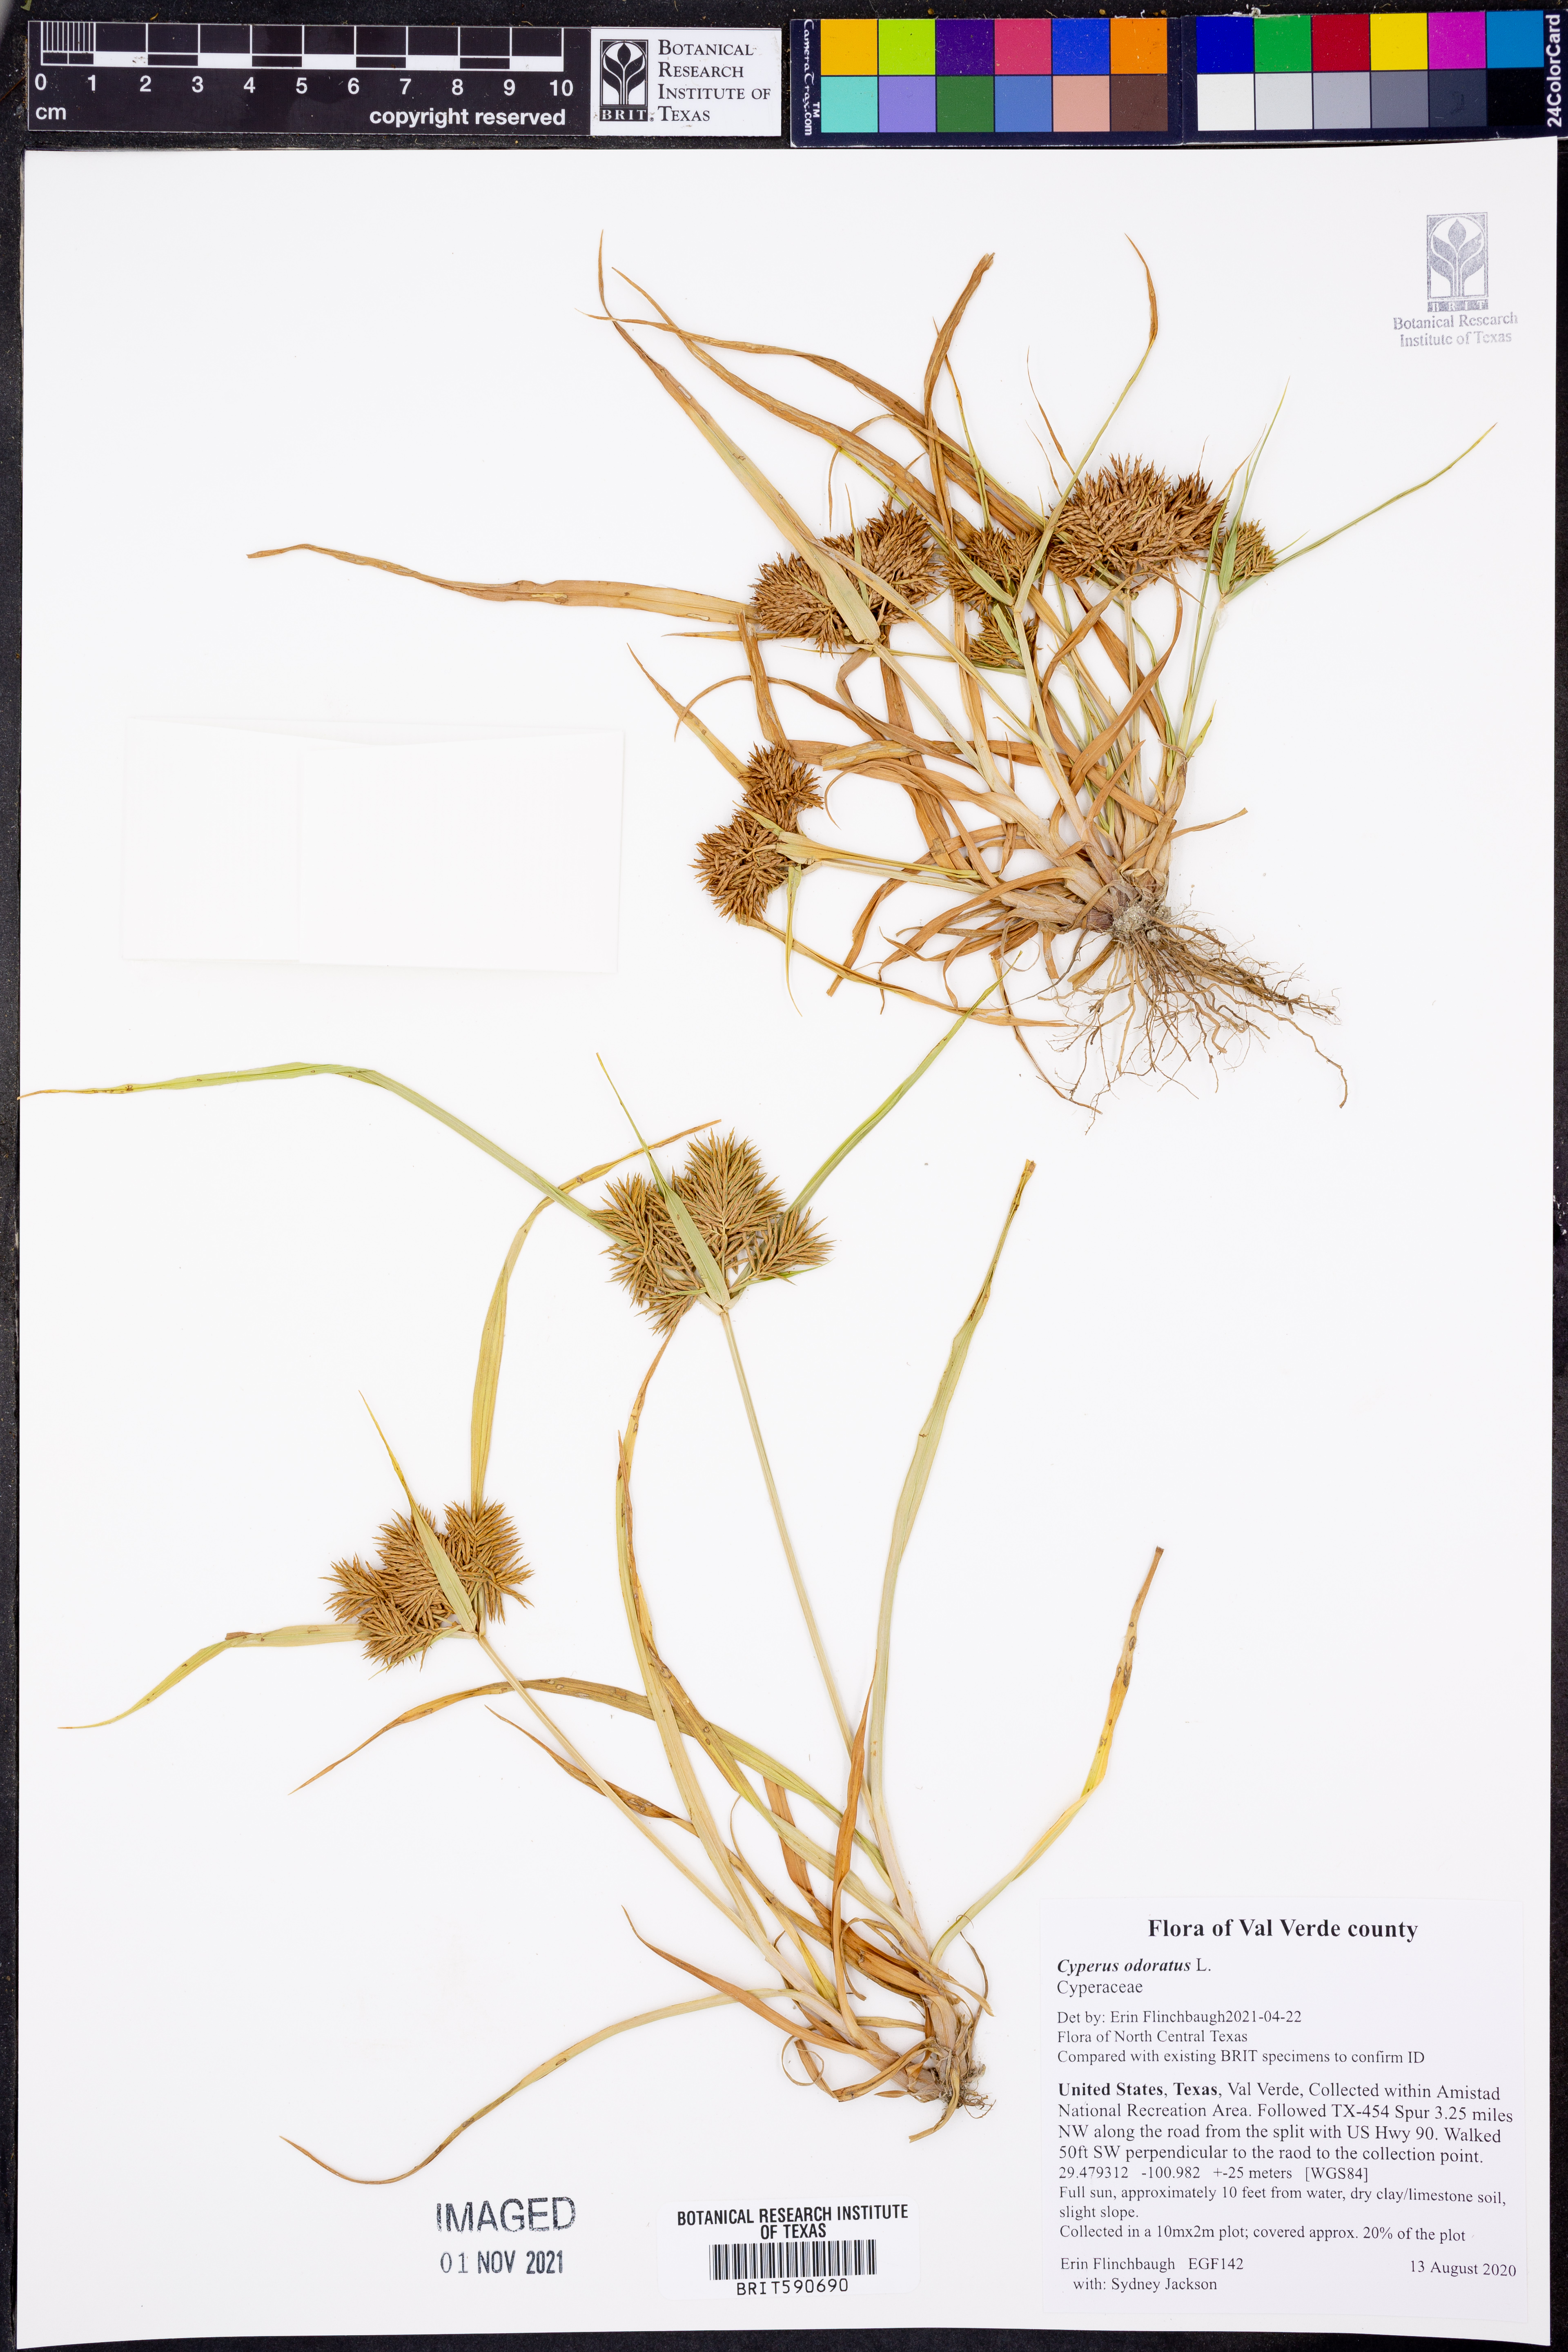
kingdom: Plantae
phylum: Tracheophyta
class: Liliopsida
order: Poales
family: Cyperaceae
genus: Cyperus
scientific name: Cyperus odoratus
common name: Fragrant flatsedge
